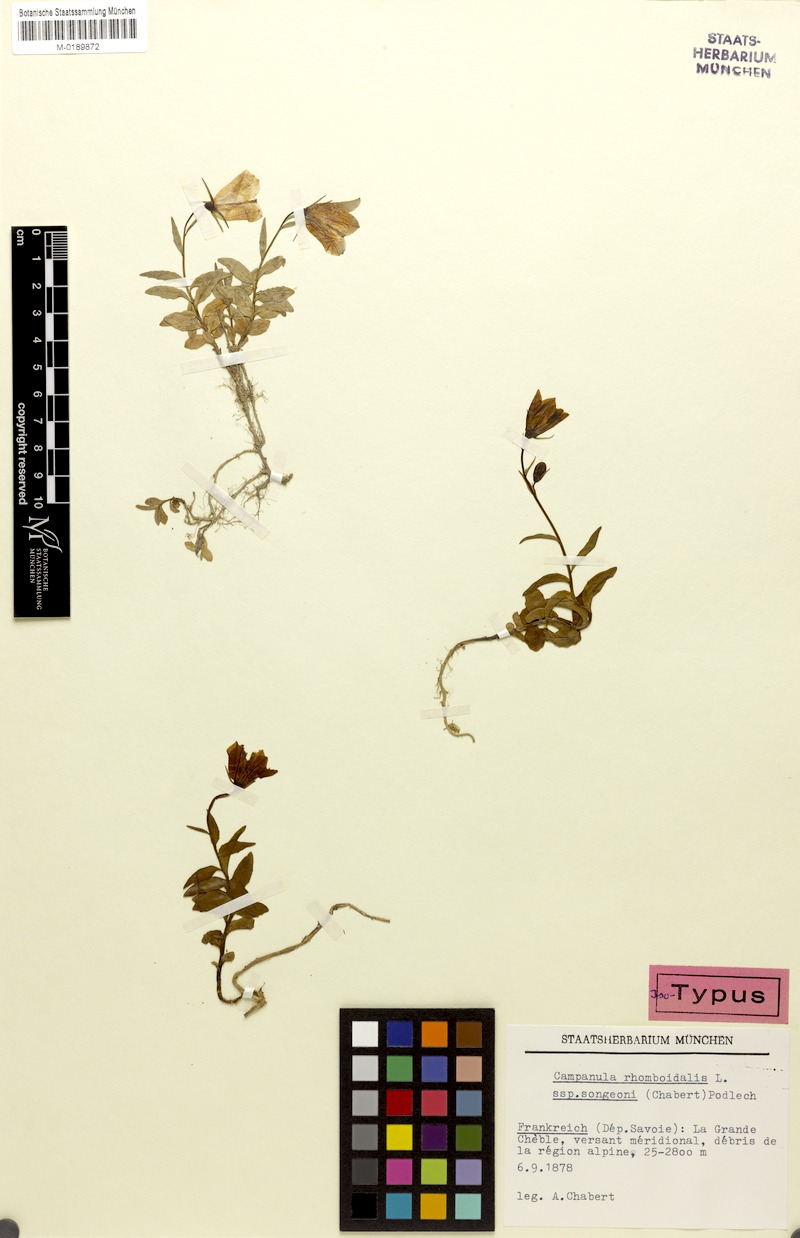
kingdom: Plantae
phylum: Tracheophyta
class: Magnoliopsida
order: Asterales
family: Campanulaceae
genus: Campanula
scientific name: Campanula rhomboidalis
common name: Broad-leaved harebell
